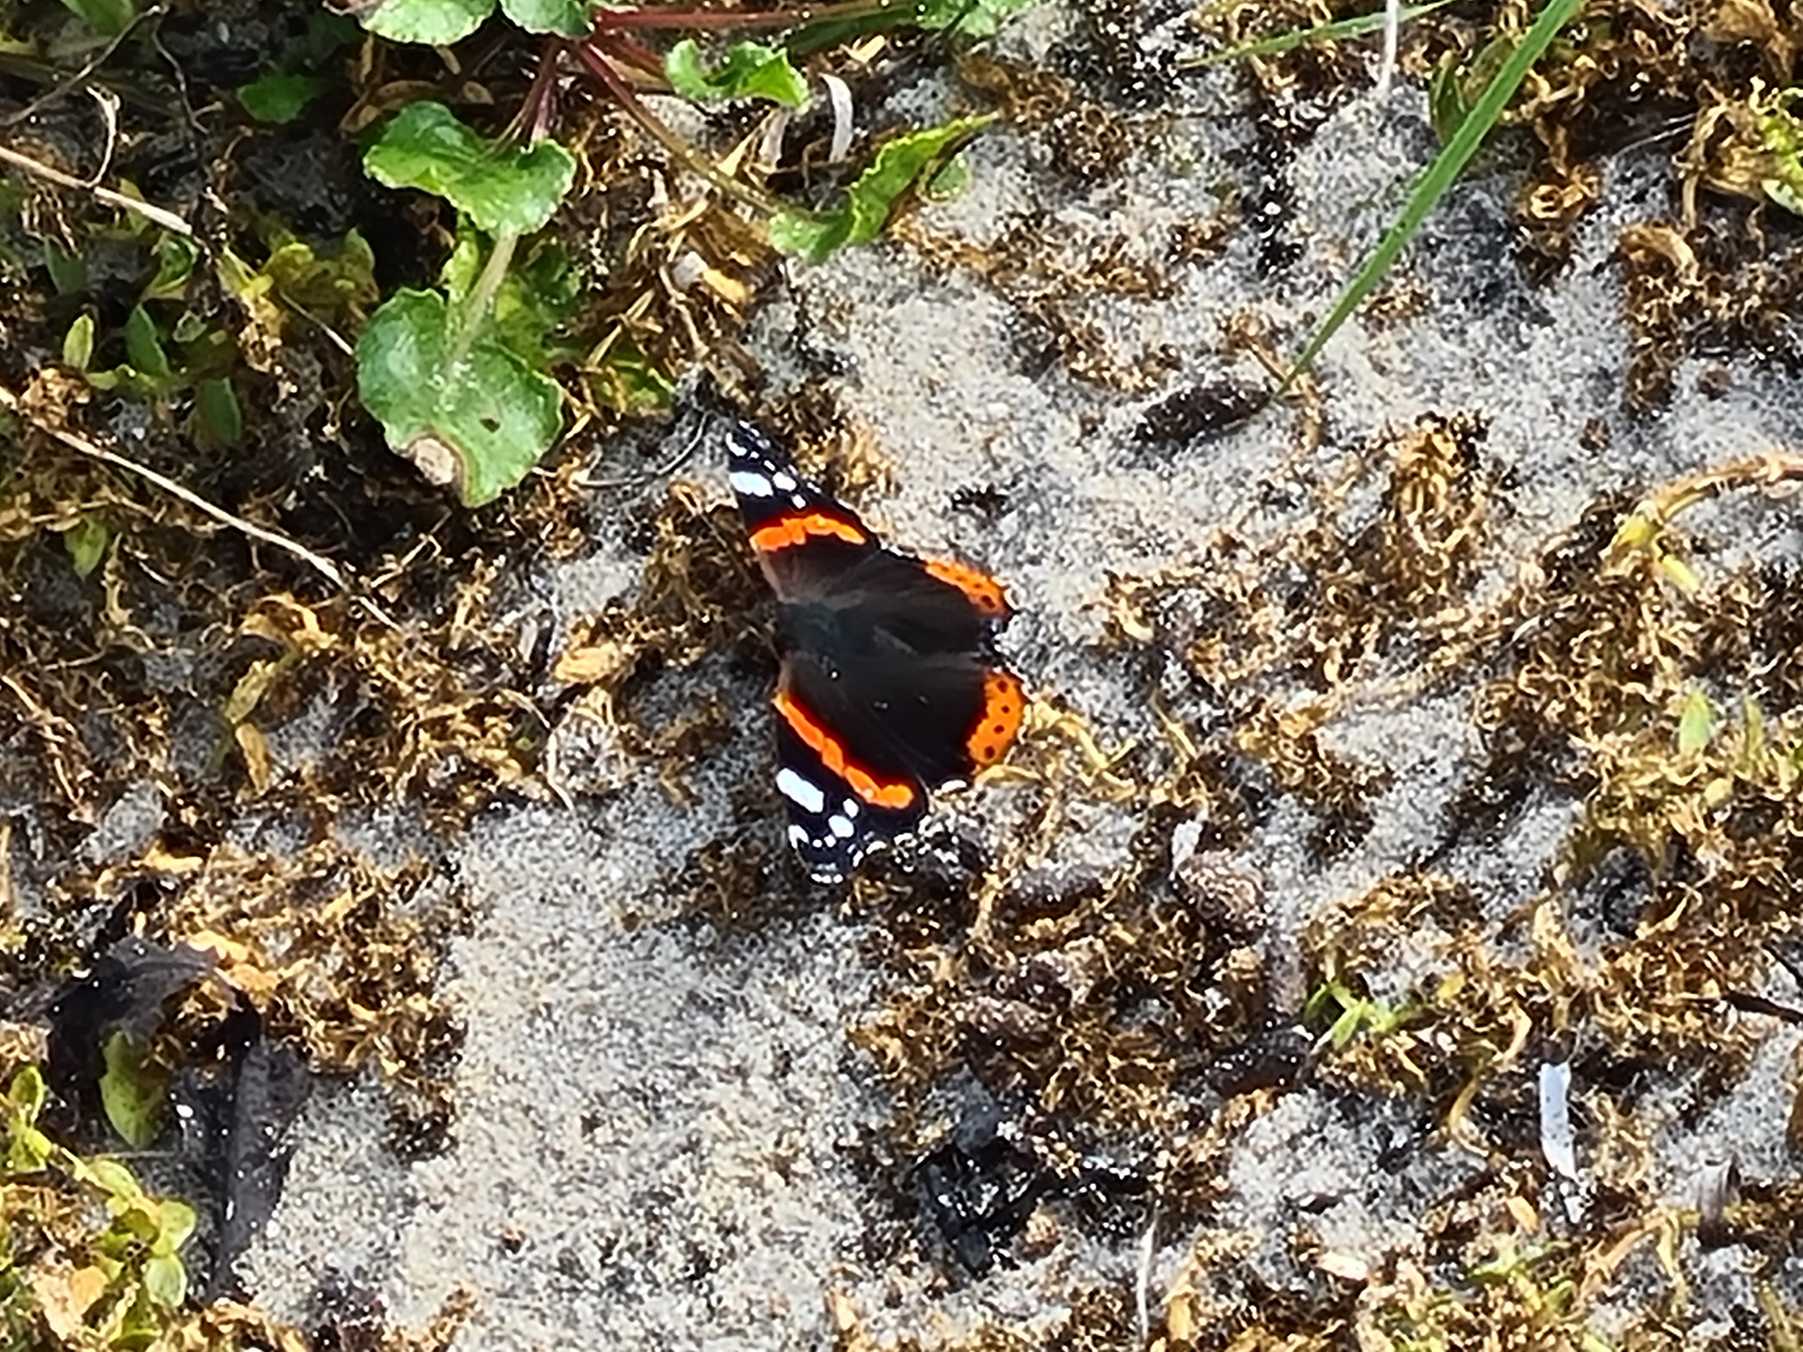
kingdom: Animalia
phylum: Arthropoda
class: Insecta
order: Lepidoptera
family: Nymphalidae
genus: Vanessa
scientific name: Vanessa atalanta
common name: Admiral
